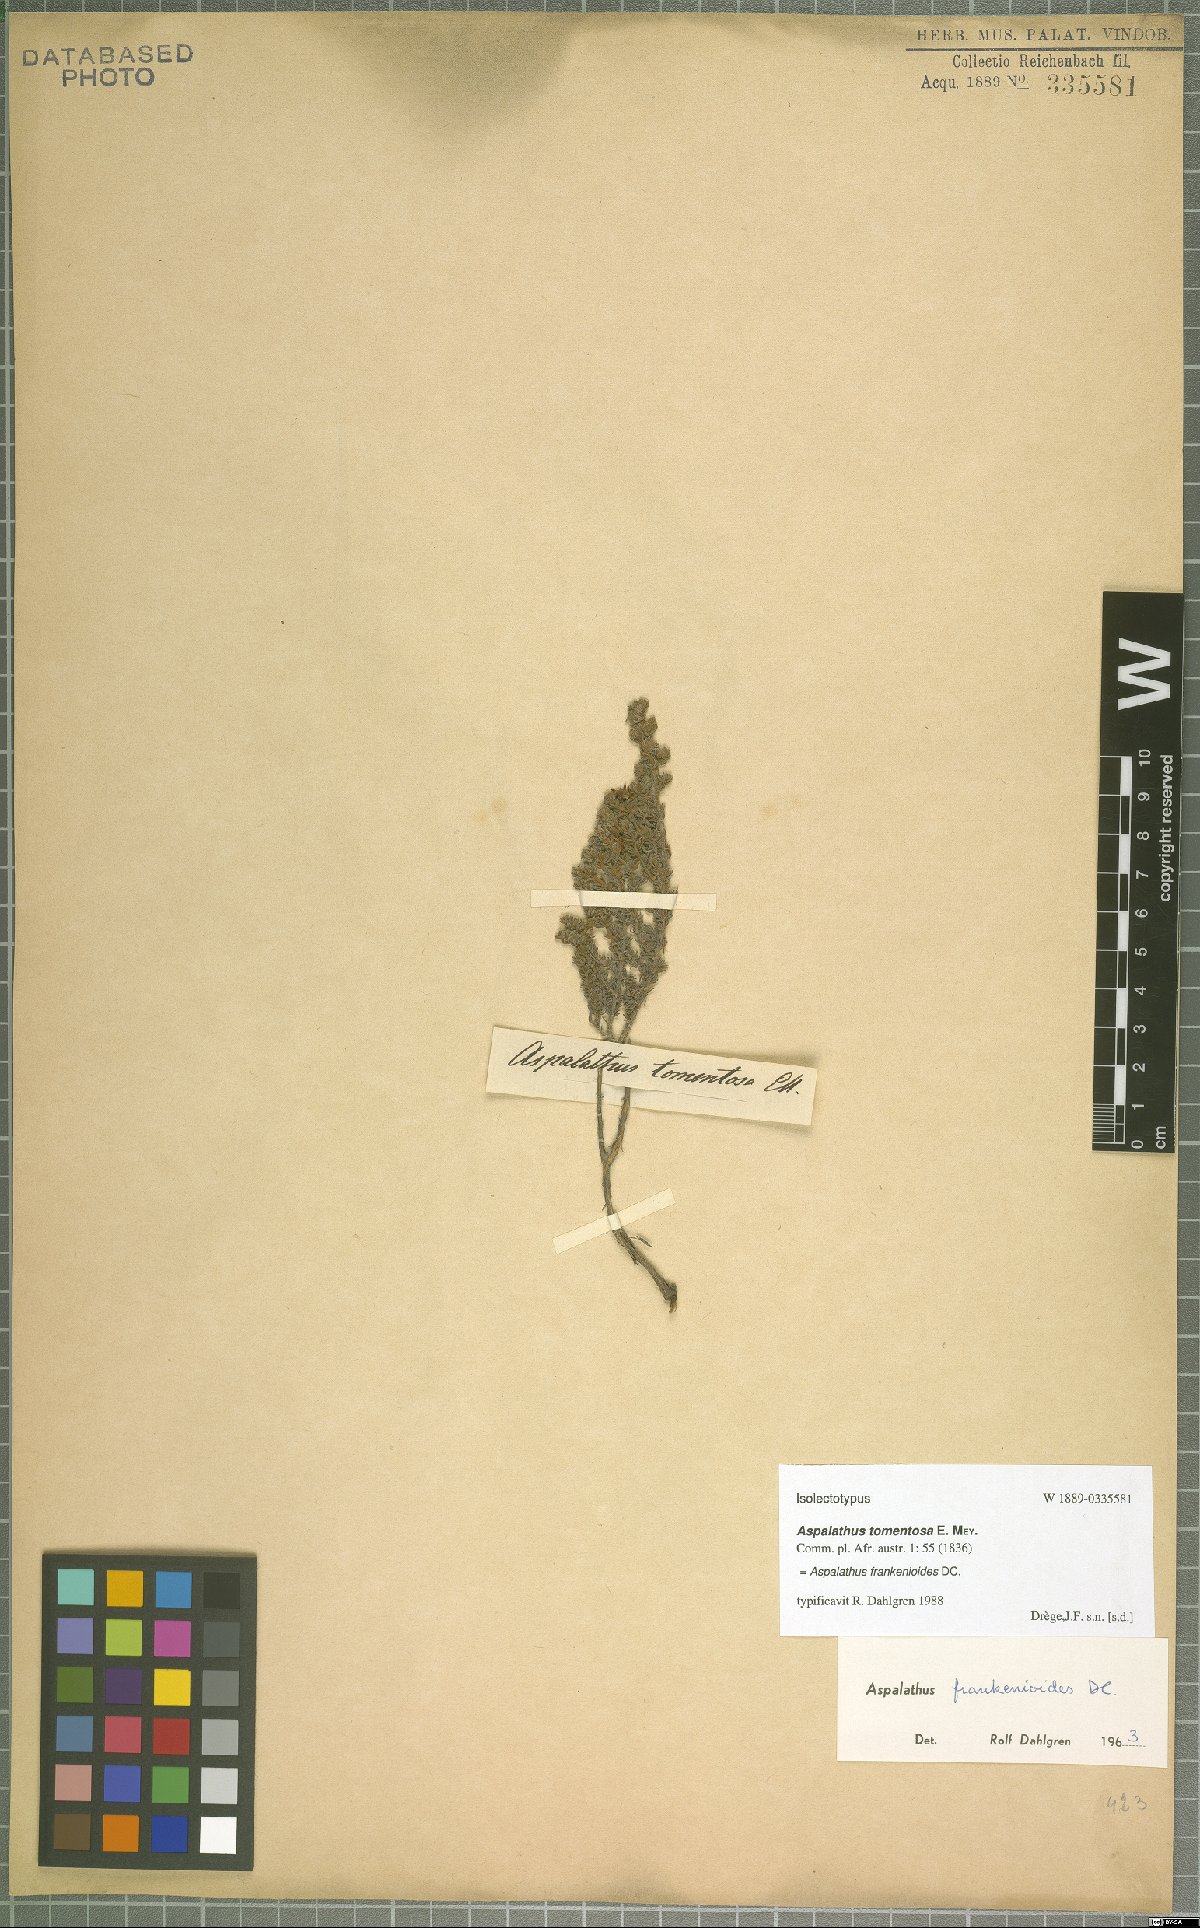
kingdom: Plantae
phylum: Tracheophyta
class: Magnoliopsida
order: Fabales
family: Fabaceae
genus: Aspalathus
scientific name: Aspalathus frankenioides
